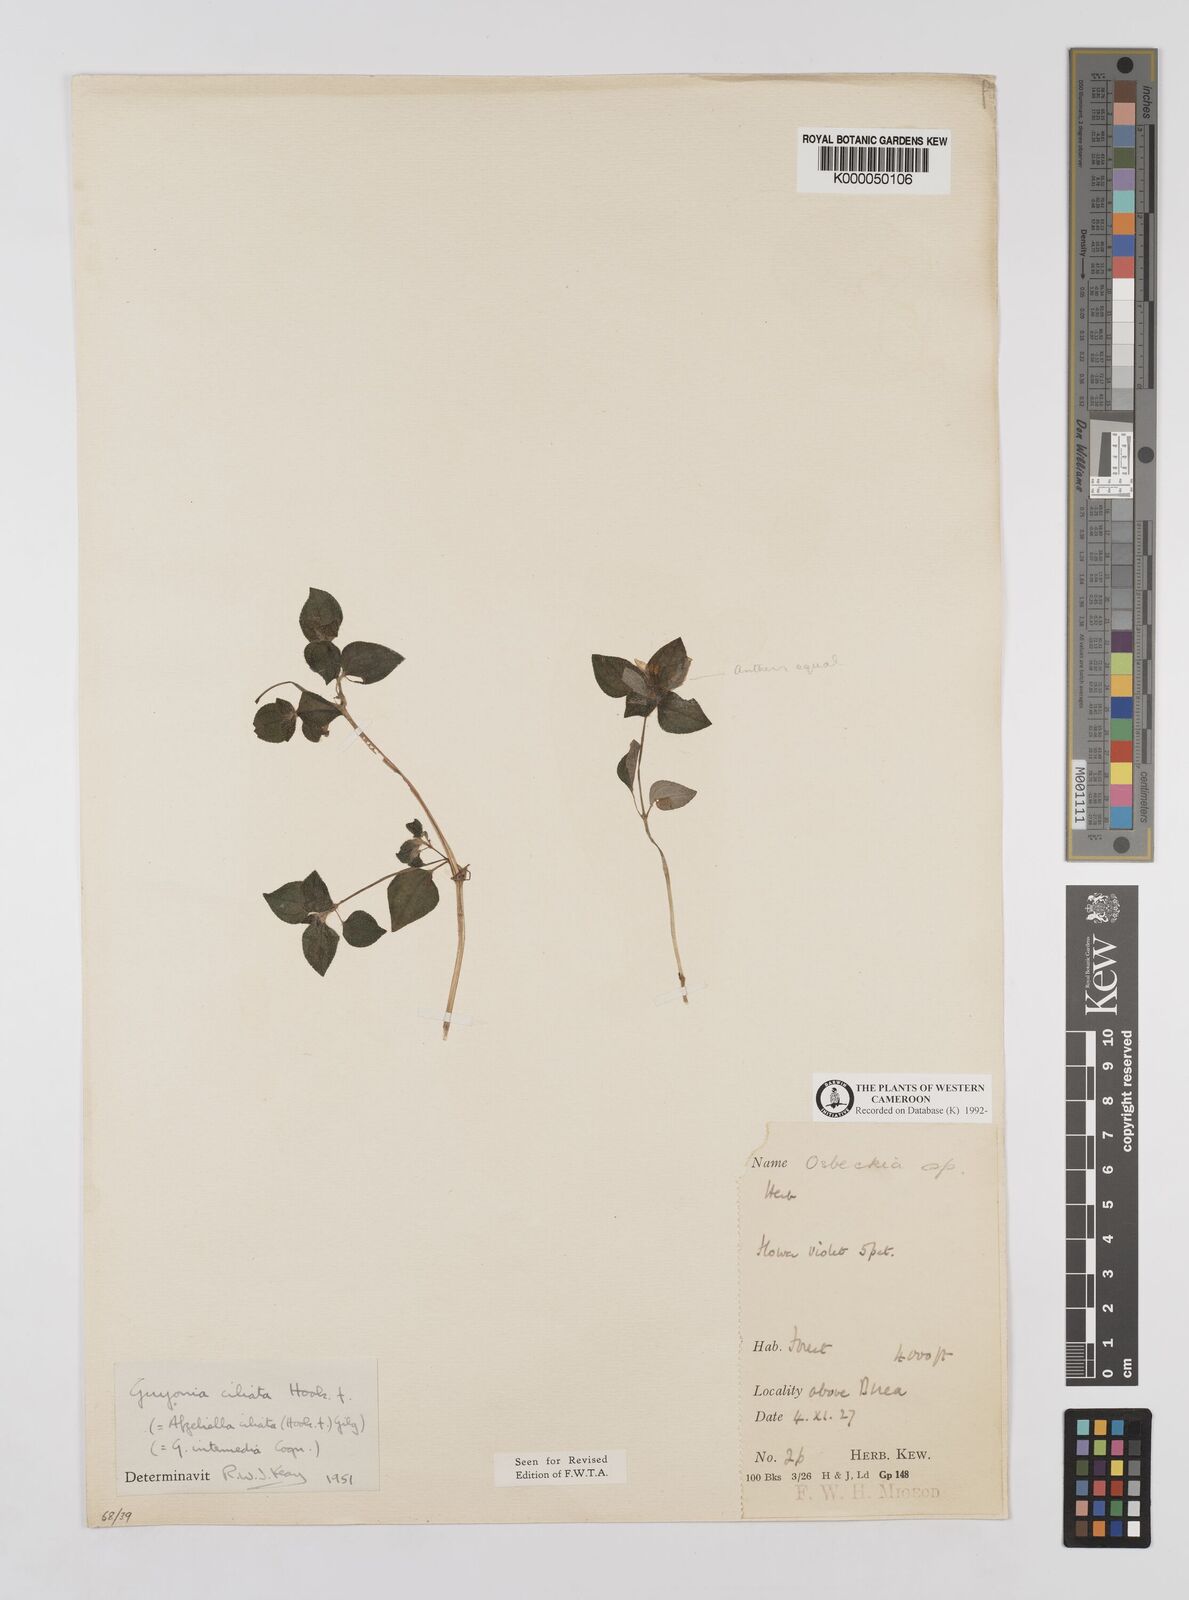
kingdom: Plantae
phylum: Tracheophyta
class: Magnoliopsida
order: Myrtales
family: Melastomataceae
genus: Guyonia
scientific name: Guyonia ciliata
